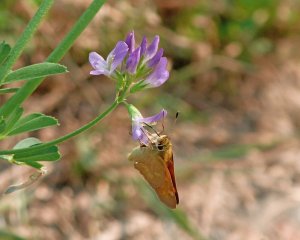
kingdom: Animalia
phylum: Arthropoda
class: Insecta
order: Lepidoptera
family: Hesperiidae
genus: Ochlodes
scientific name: Ochlodes sylvanoides
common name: Woodland Skipper
